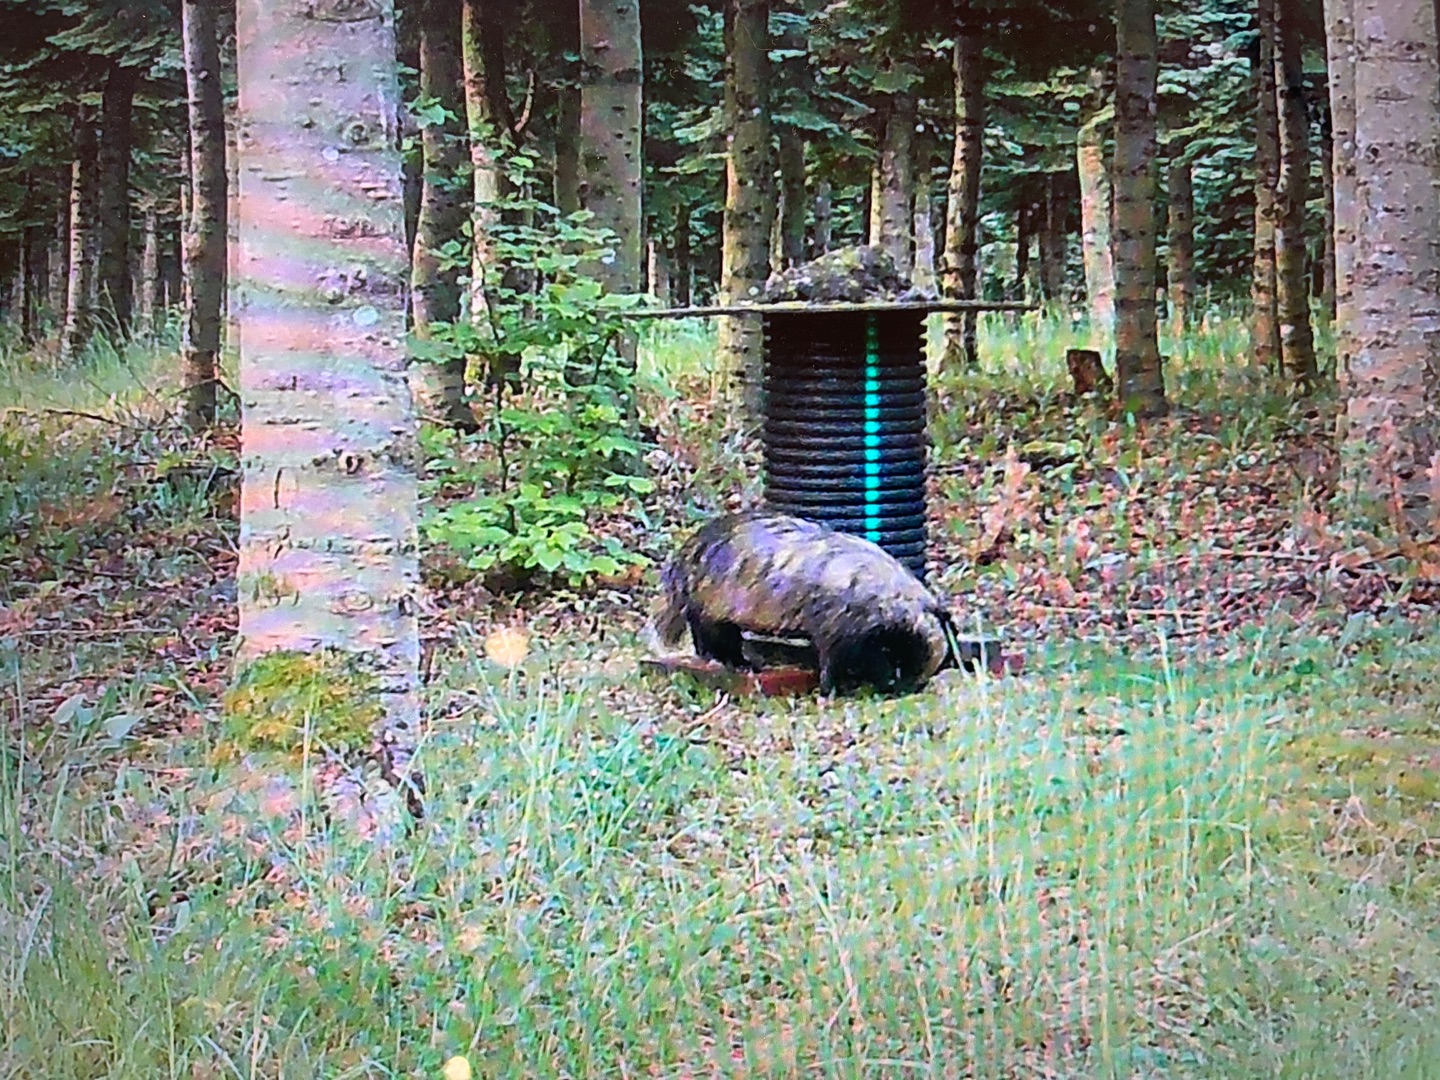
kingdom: Animalia
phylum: Chordata
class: Mammalia
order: Carnivora
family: Mustelidae
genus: Meles
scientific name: Meles meles
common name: Grævling
